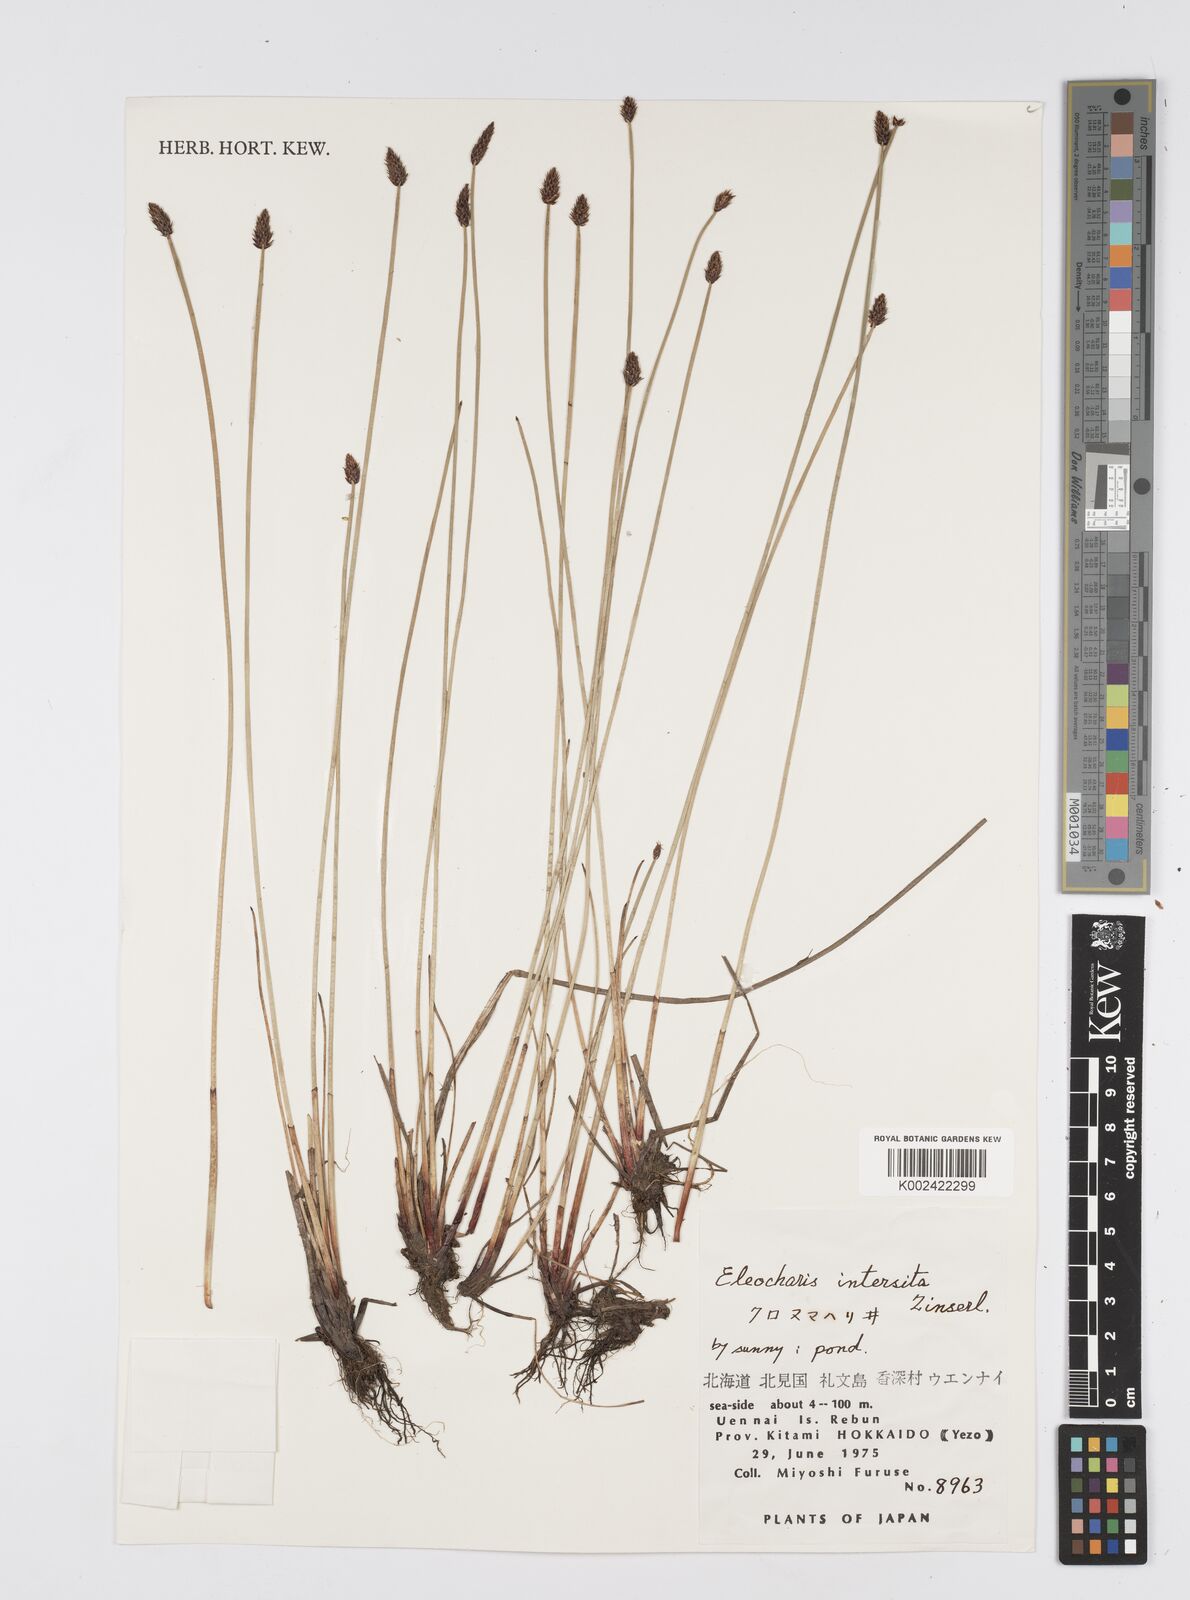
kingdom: Plantae
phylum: Tracheophyta
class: Liliopsida
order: Poales
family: Cyperaceae
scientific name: Cyperaceae
